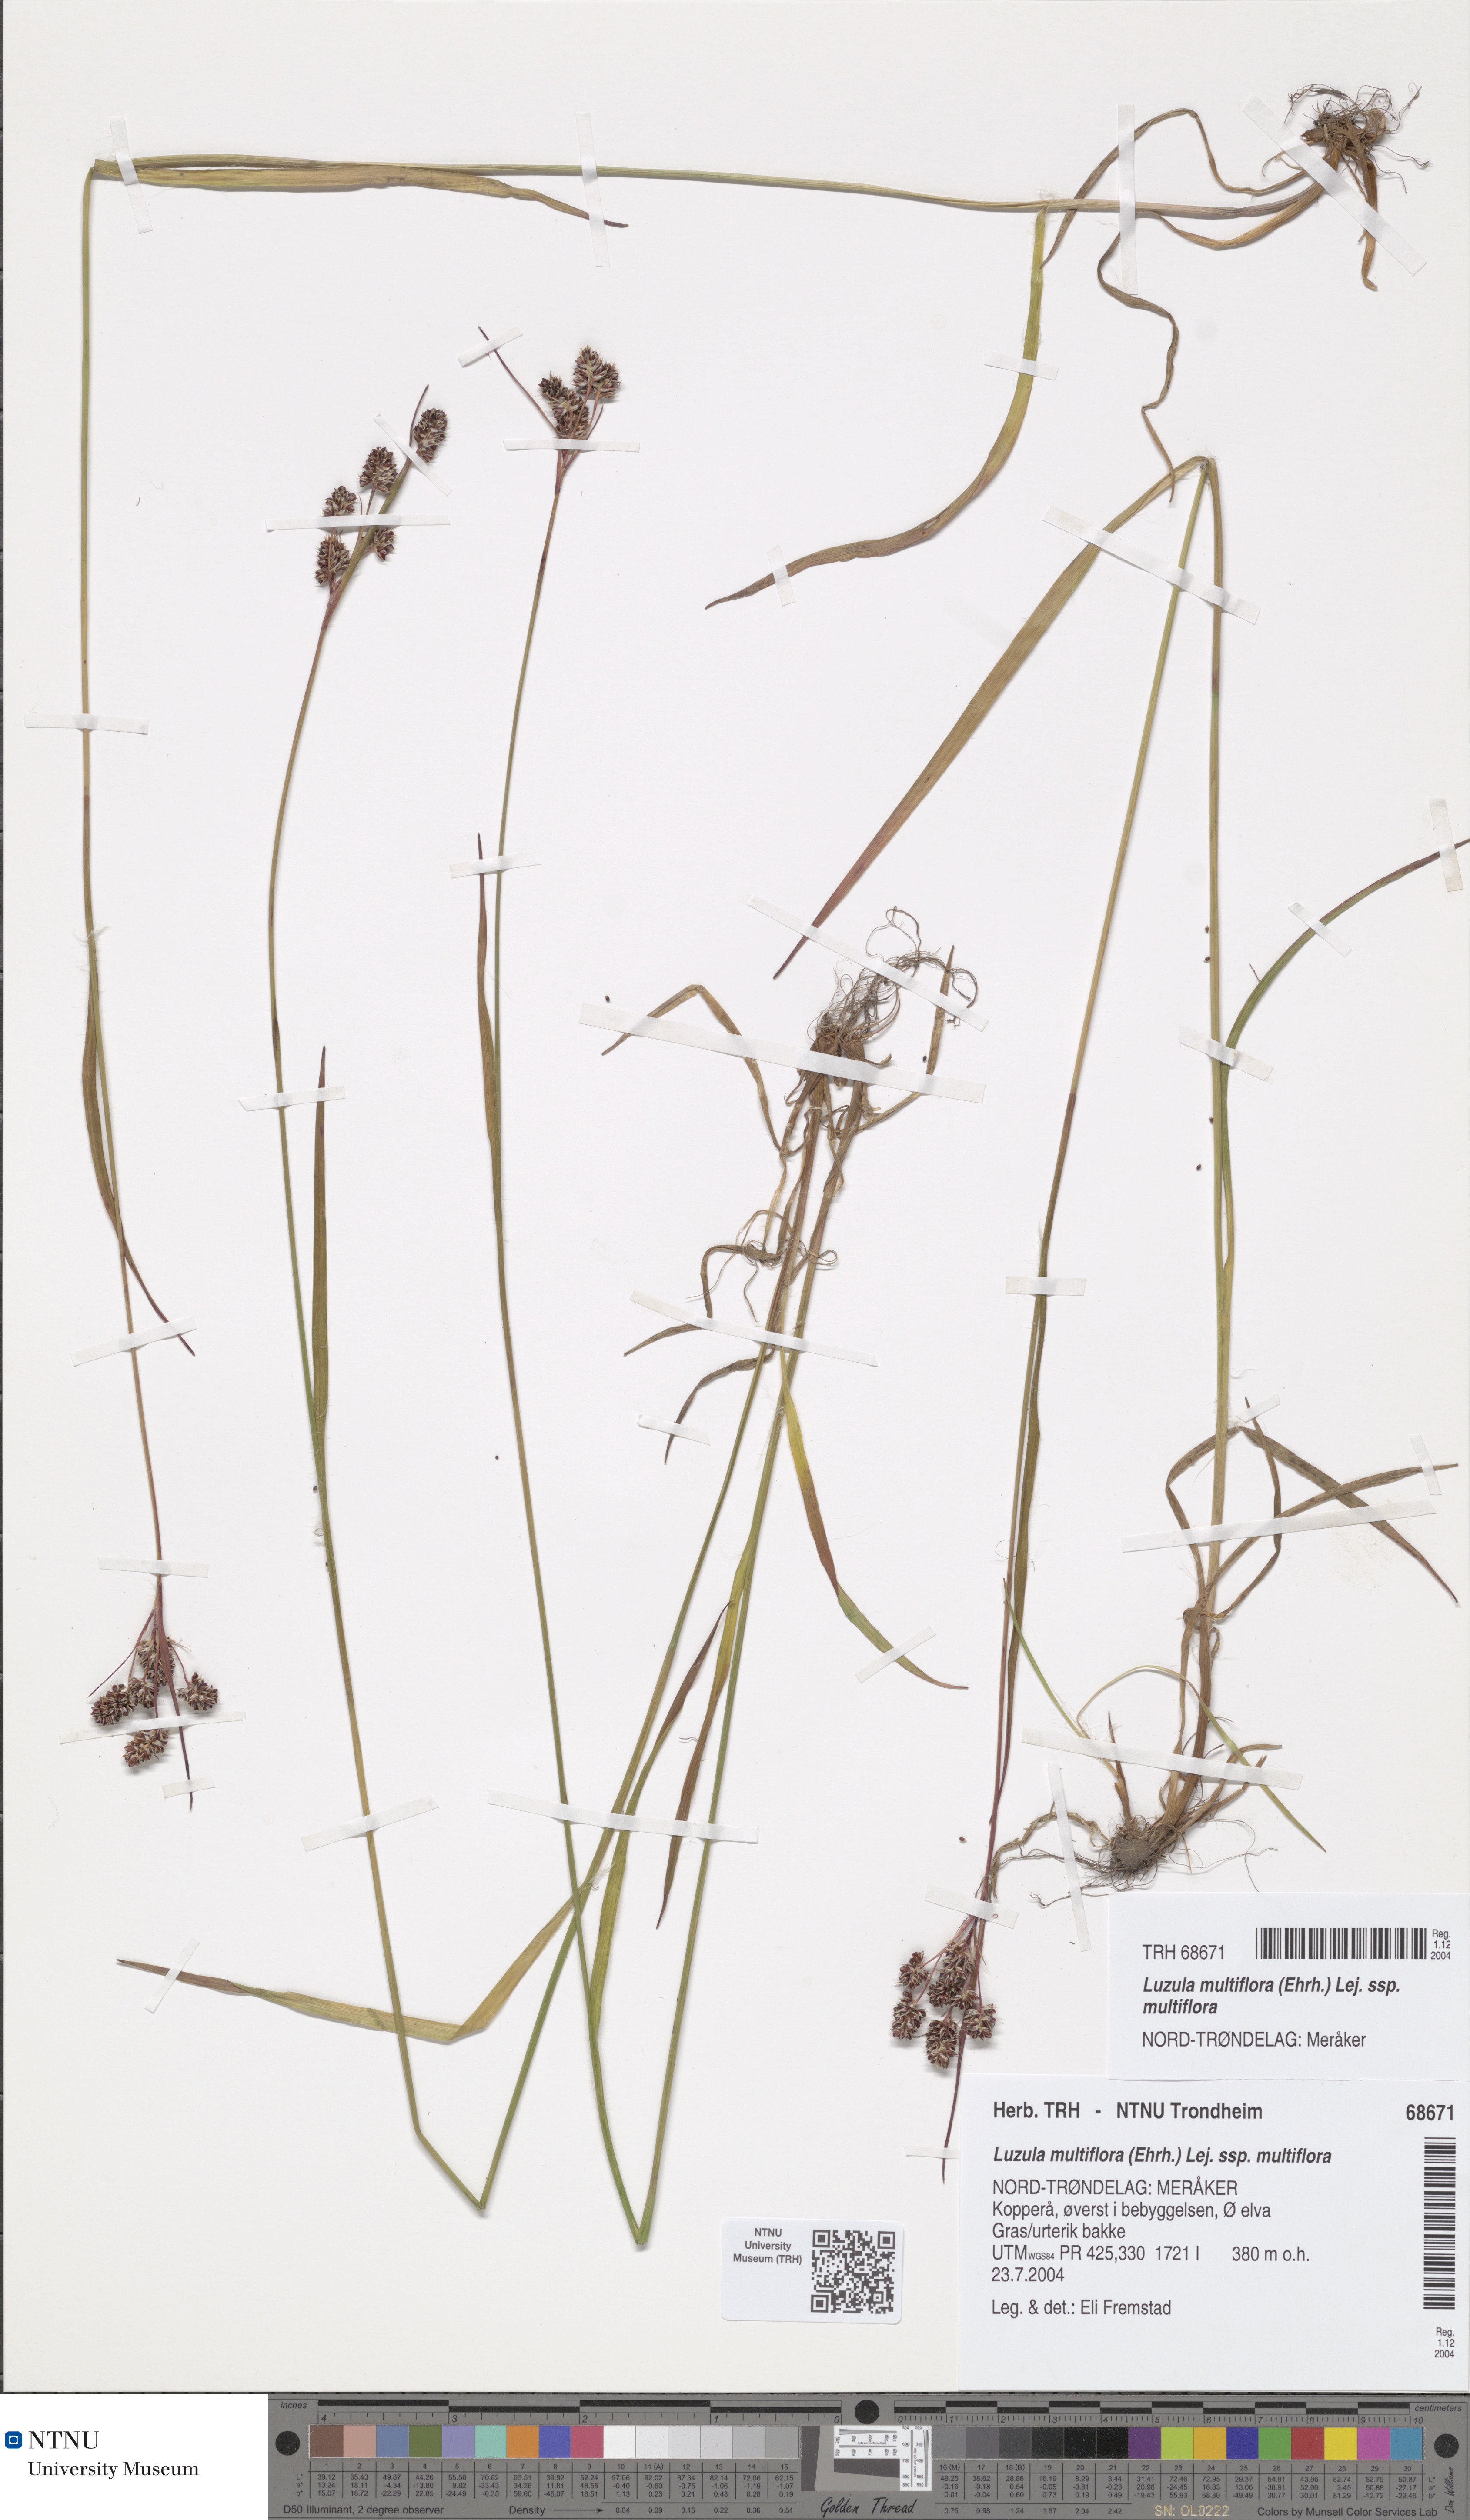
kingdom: Plantae
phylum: Tracheophyta
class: Liliopsida
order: Poales
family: Juncaceae
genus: Luzula
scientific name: Luzula multiflora
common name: Heath wood-rush
